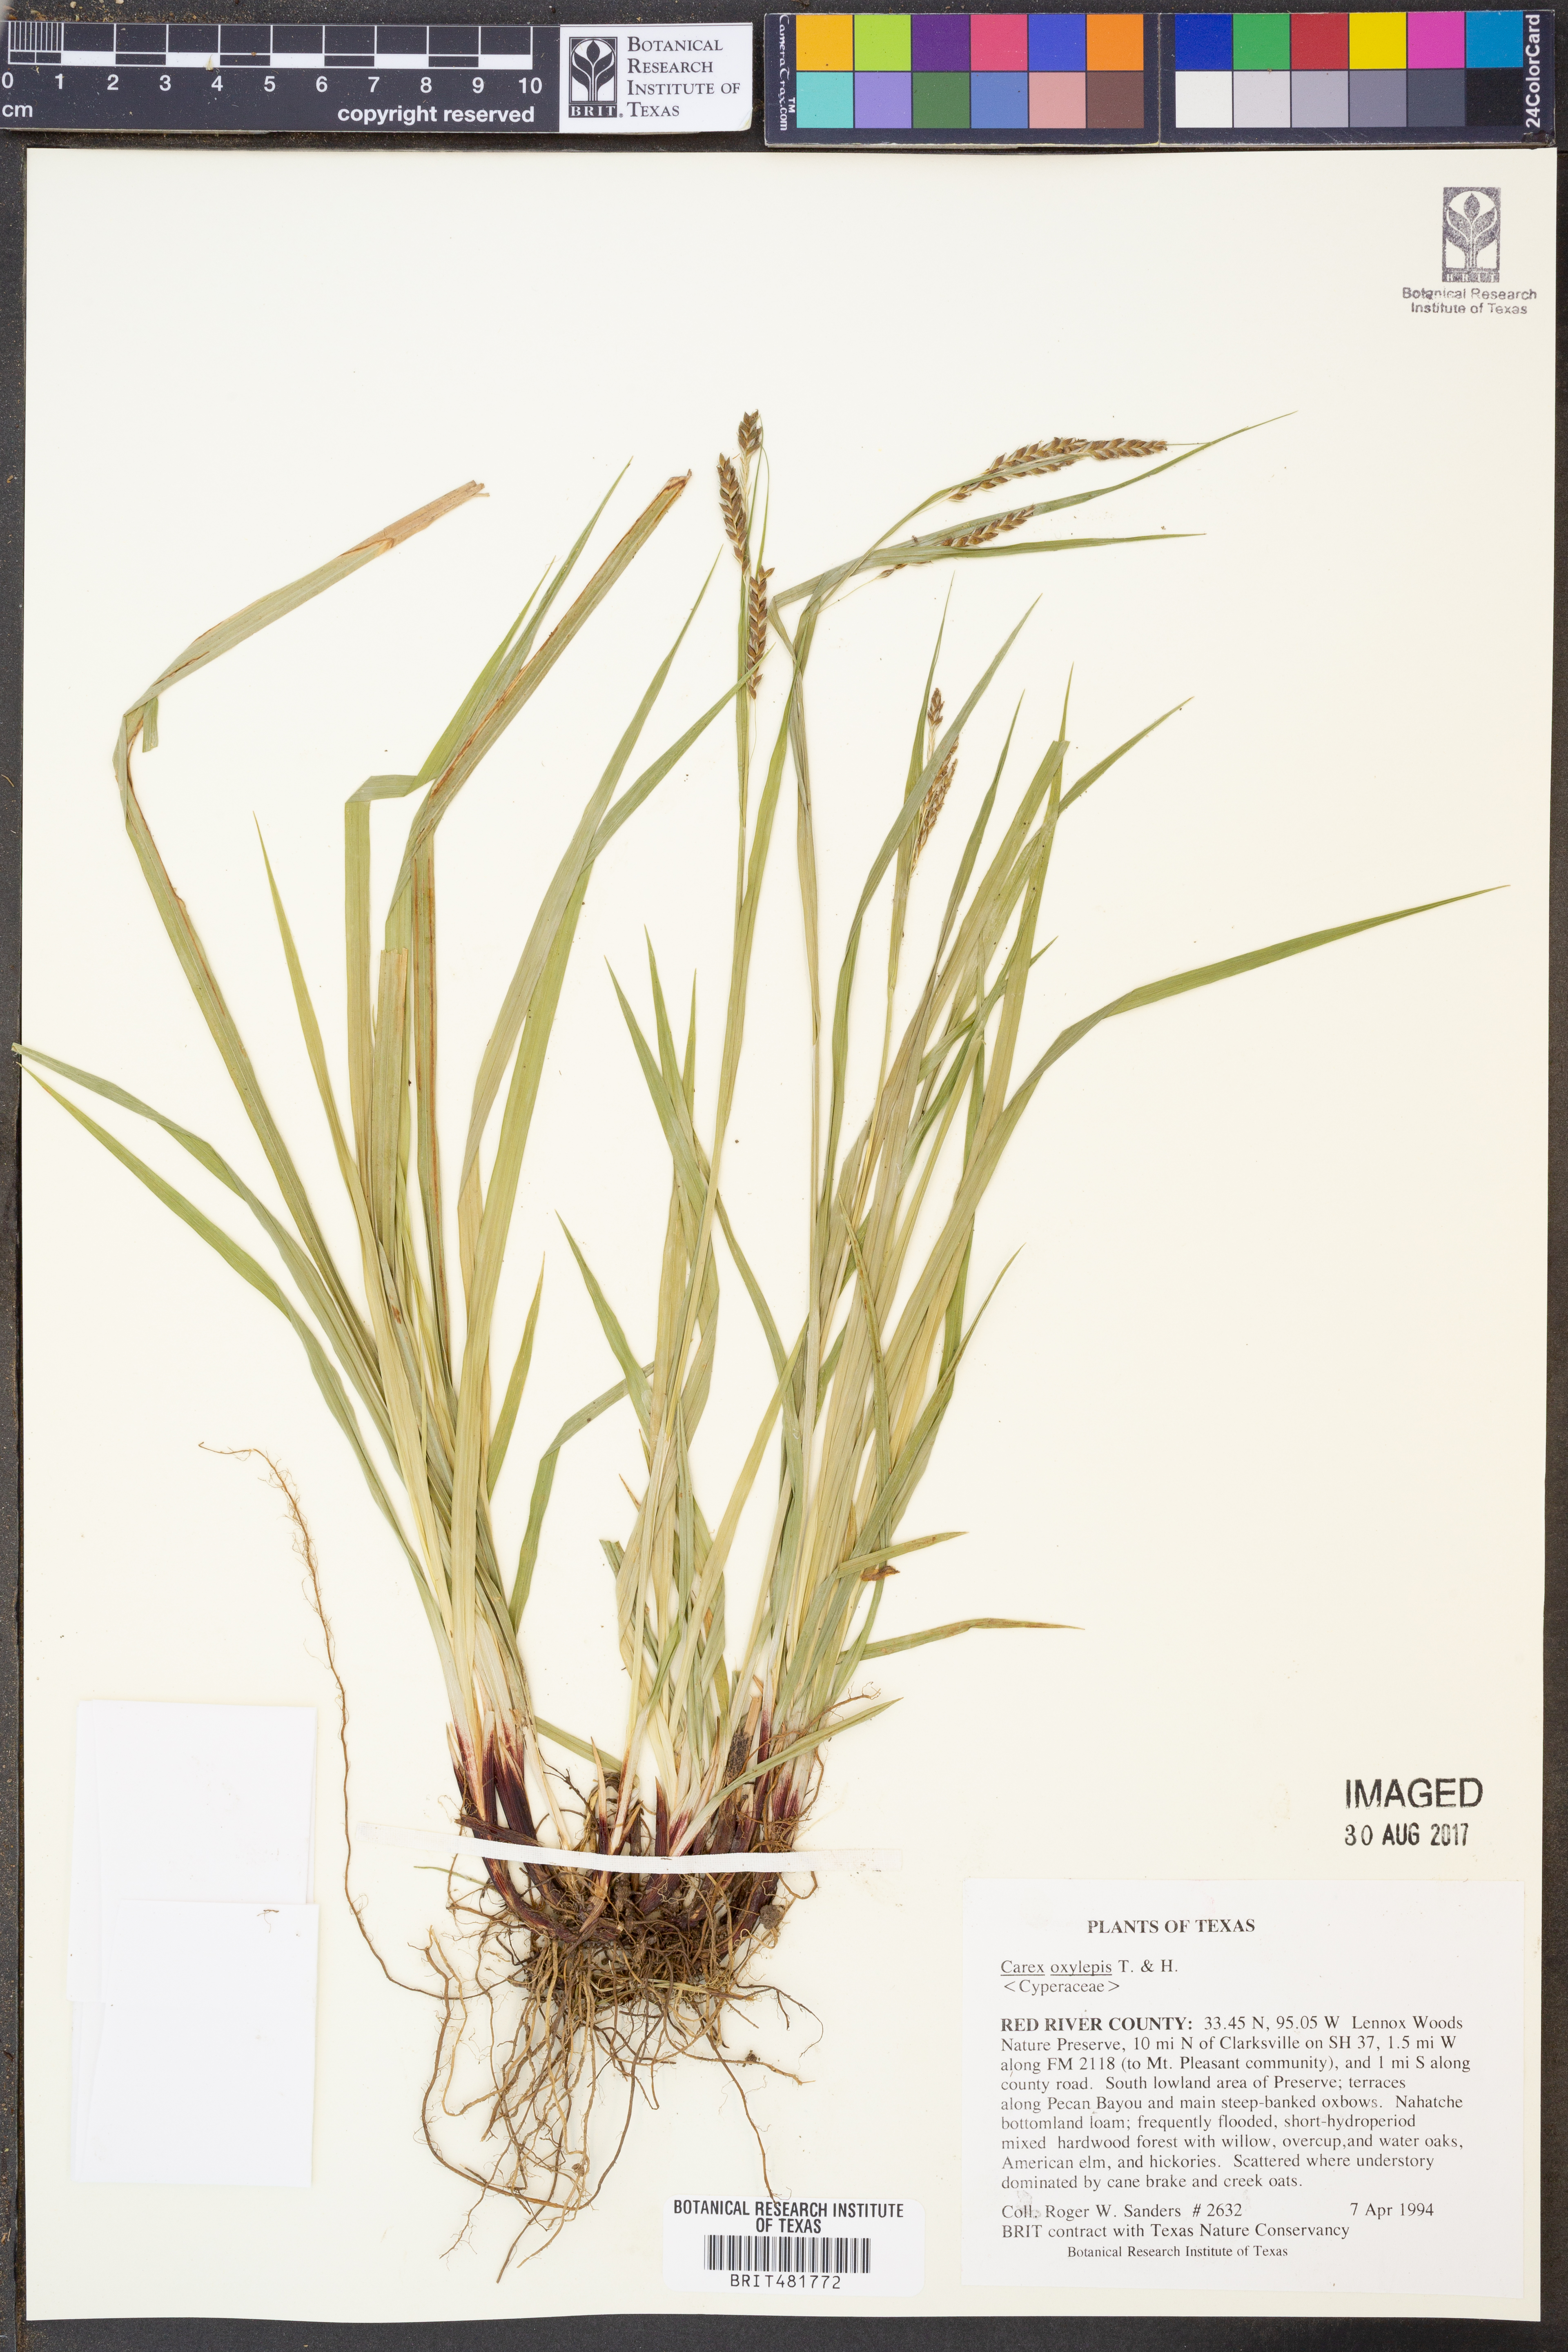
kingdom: Plantae
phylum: Tracheophyta
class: Liliopsida
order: Poales
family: Cyperaceae
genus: Carex
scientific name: Carex oxylepis
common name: Sharpscale sedge
